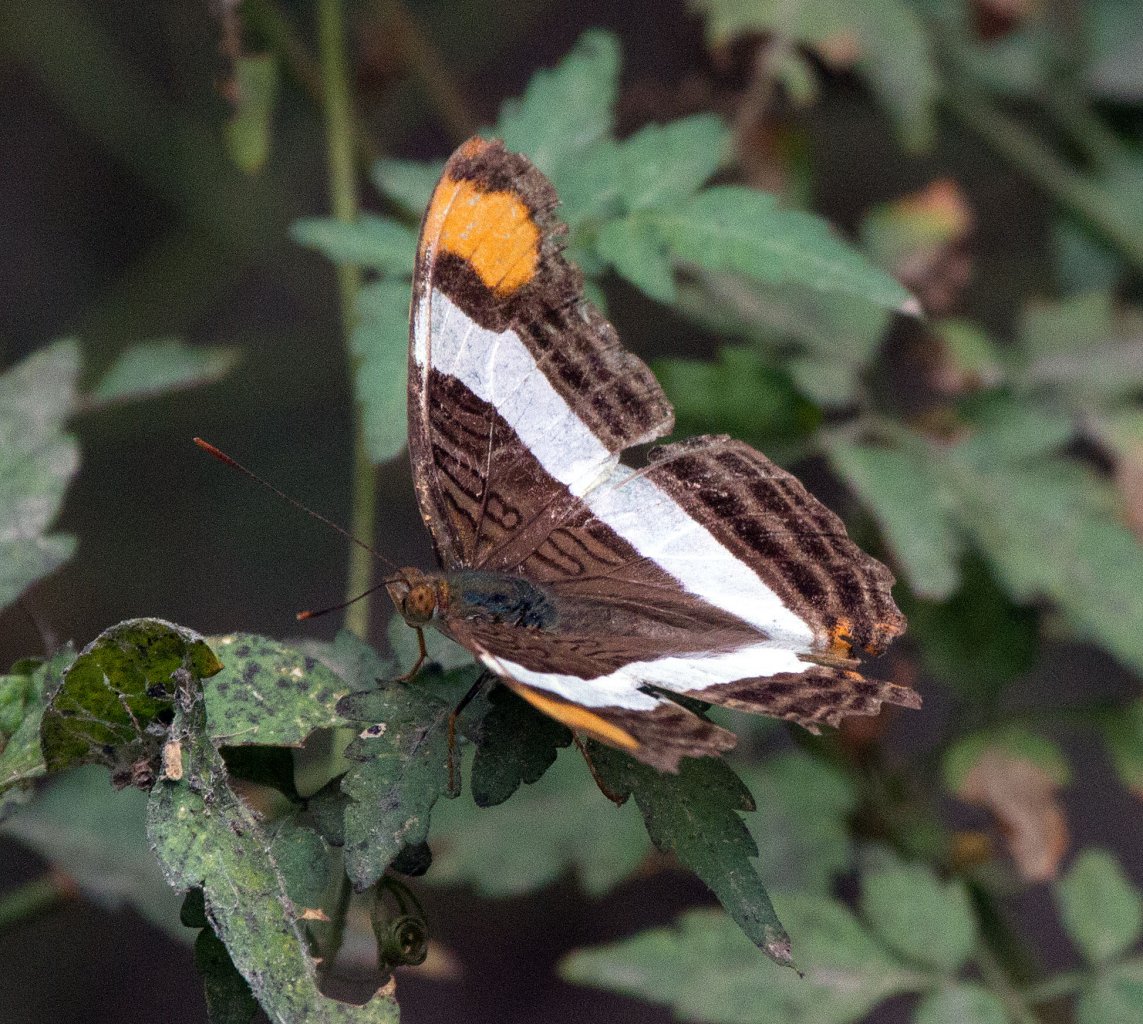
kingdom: Animalia
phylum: Arthropoda
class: Insecta
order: Lepidoptera
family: Nymphalidae
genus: Limenitis
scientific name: Limenitis fessonia
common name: Band-celled Sister
